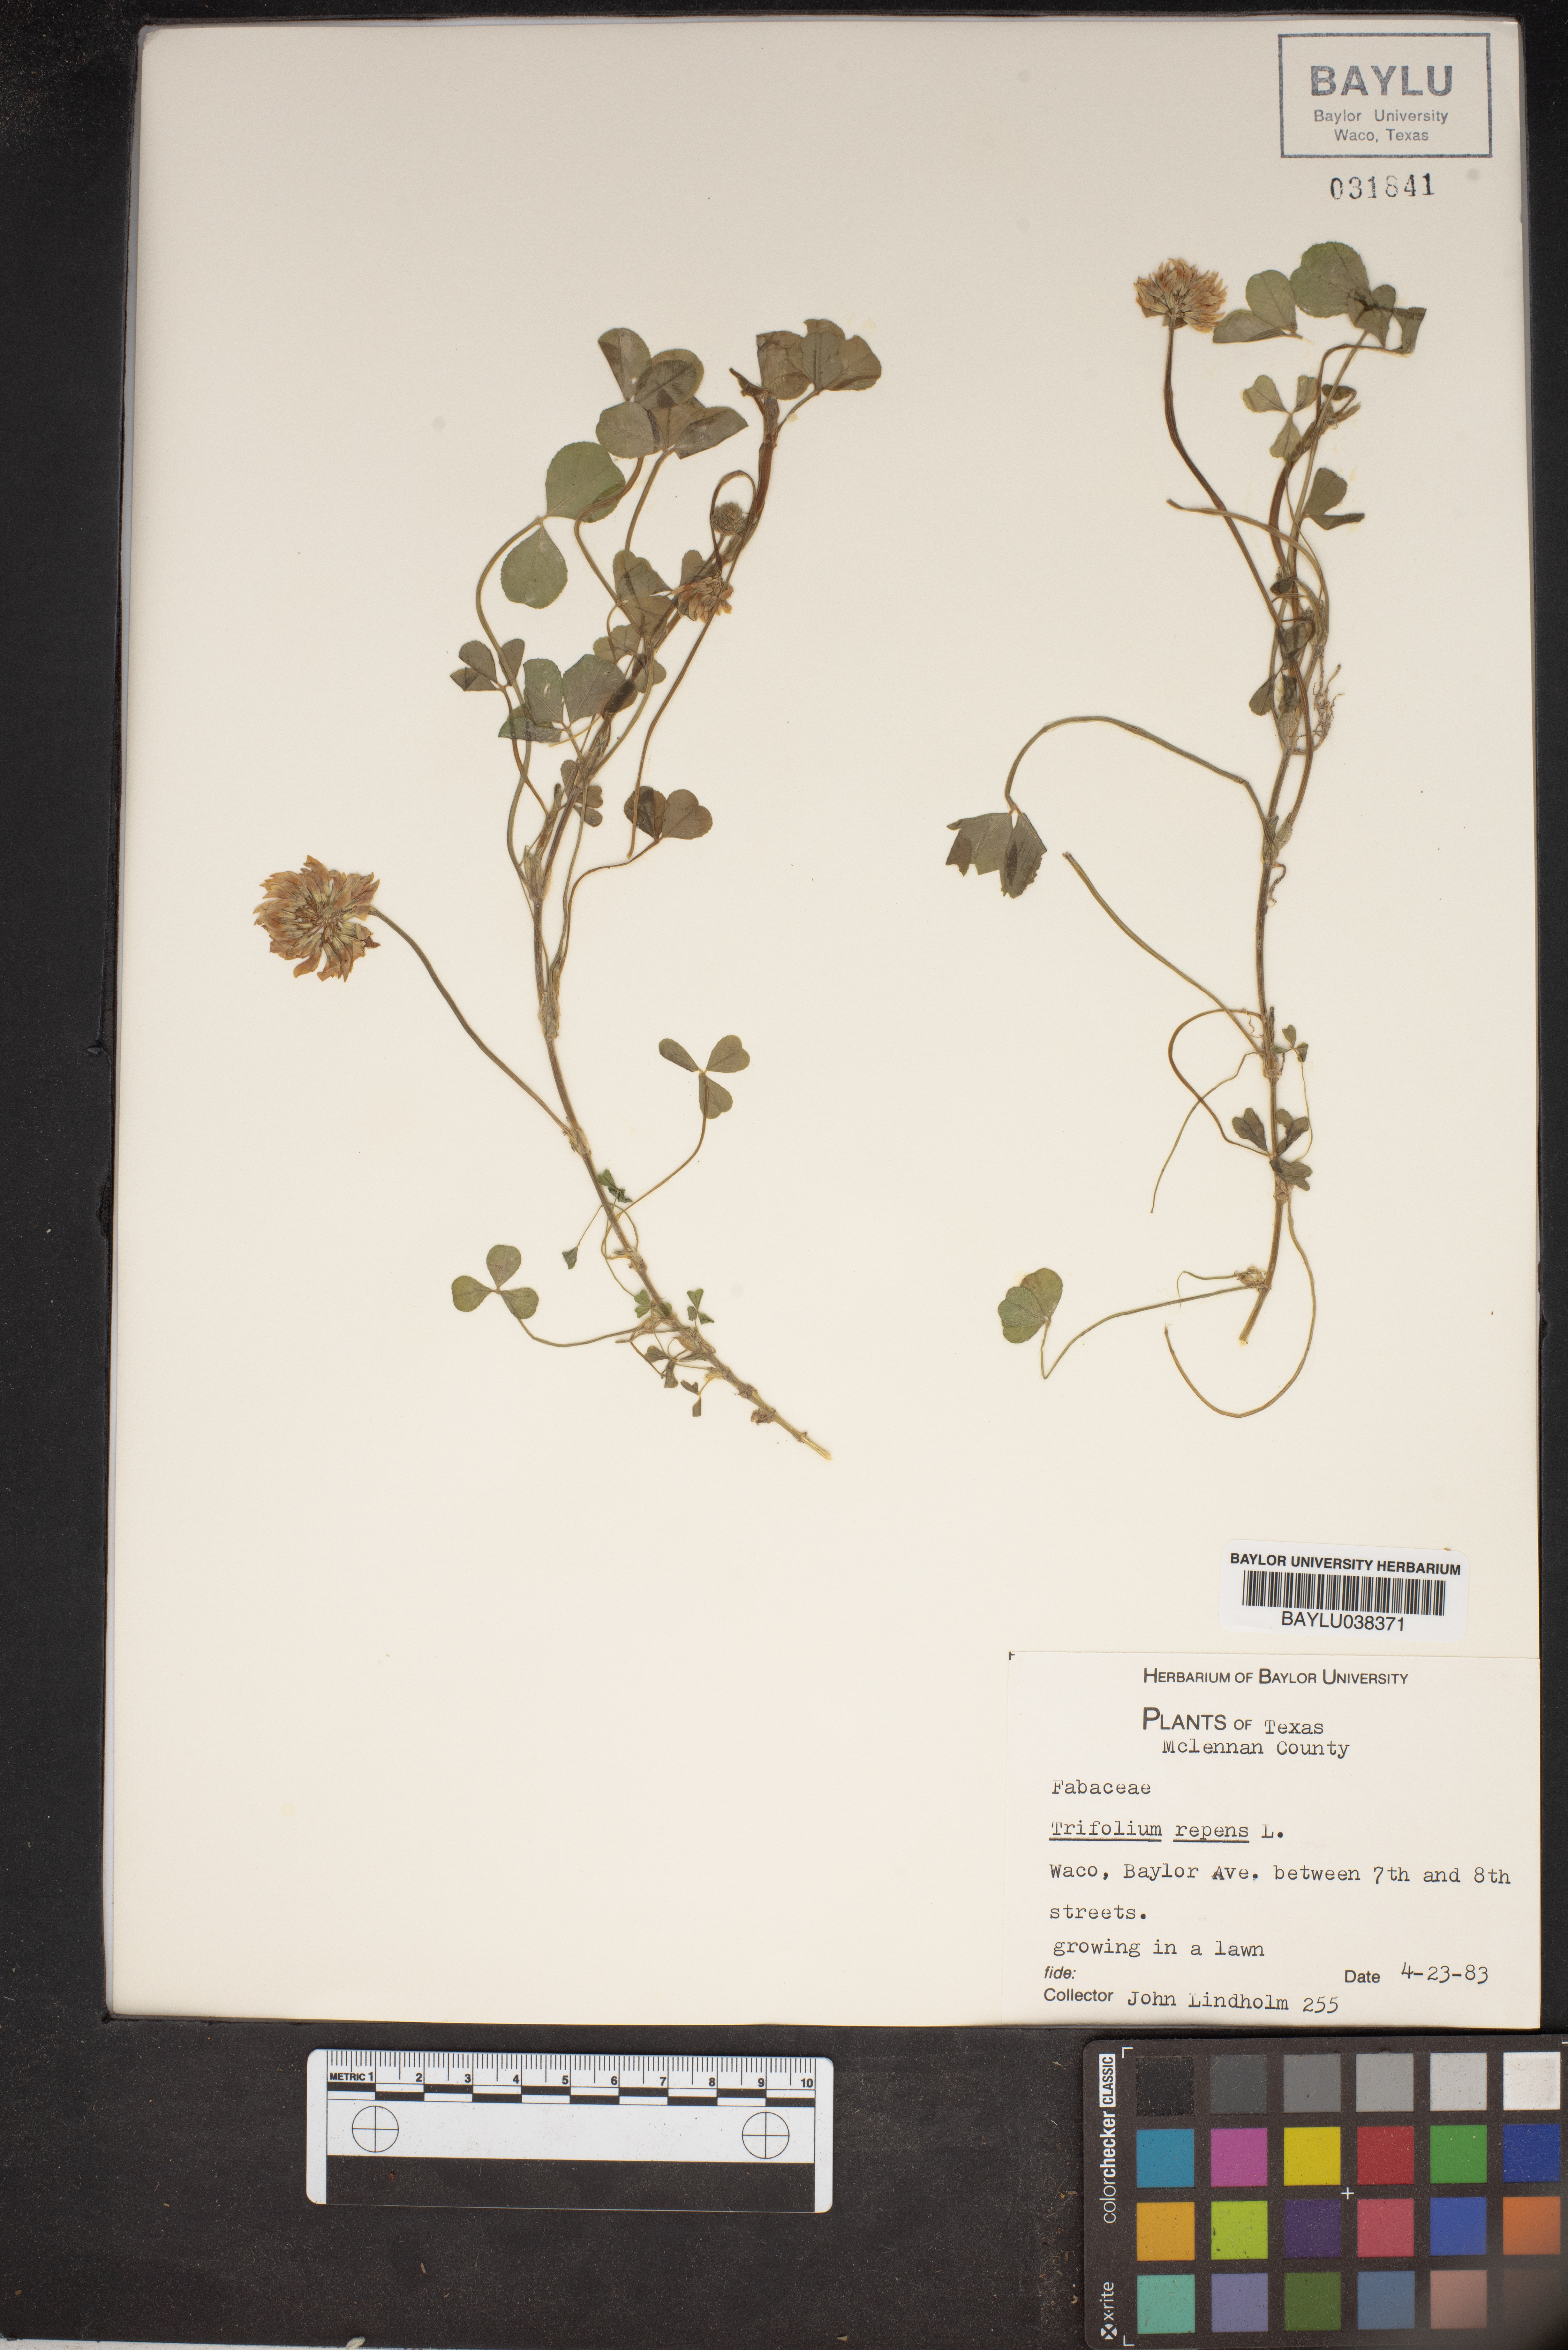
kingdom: Plantae
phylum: Tracheophyta
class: Magnoliopsida
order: Fabales
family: Fabaceae
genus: Trifolium
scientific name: Trifolium repens
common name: White clover
